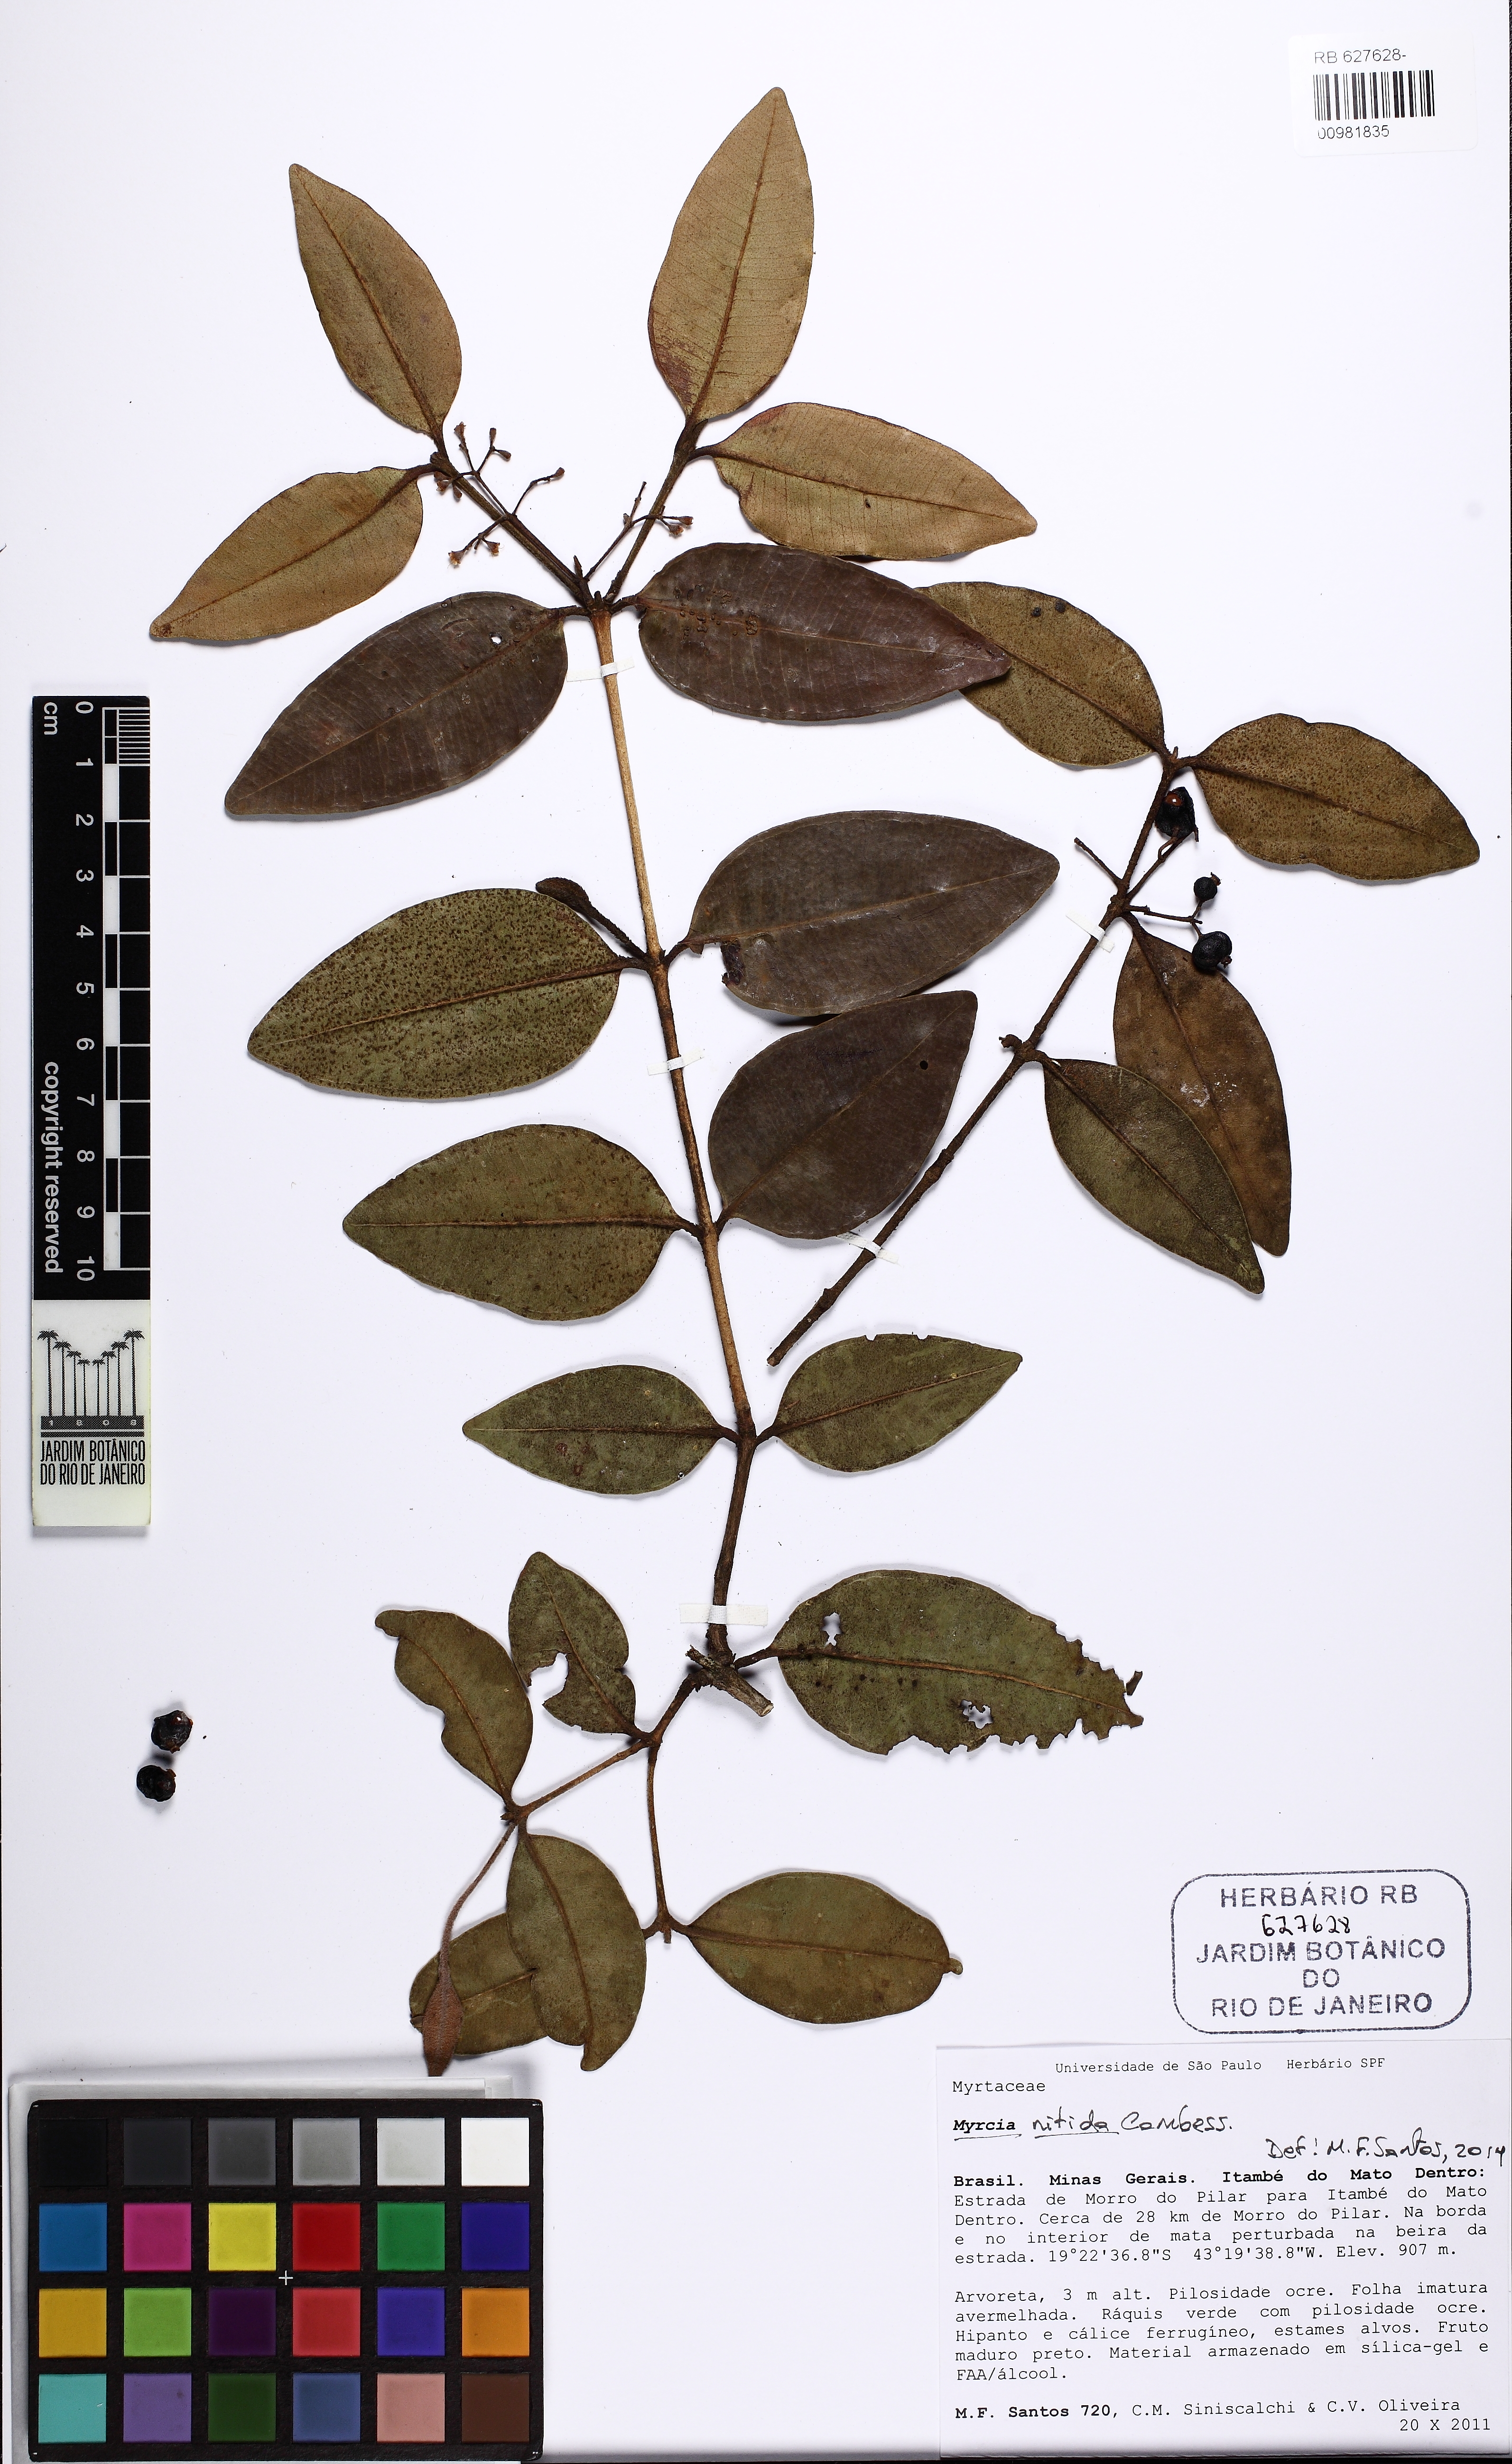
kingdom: Plantae
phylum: Tracheophyta
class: Magnoliopsida
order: Myrtales
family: Myrtaceae
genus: Myrcia
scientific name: Myrcia nitida
